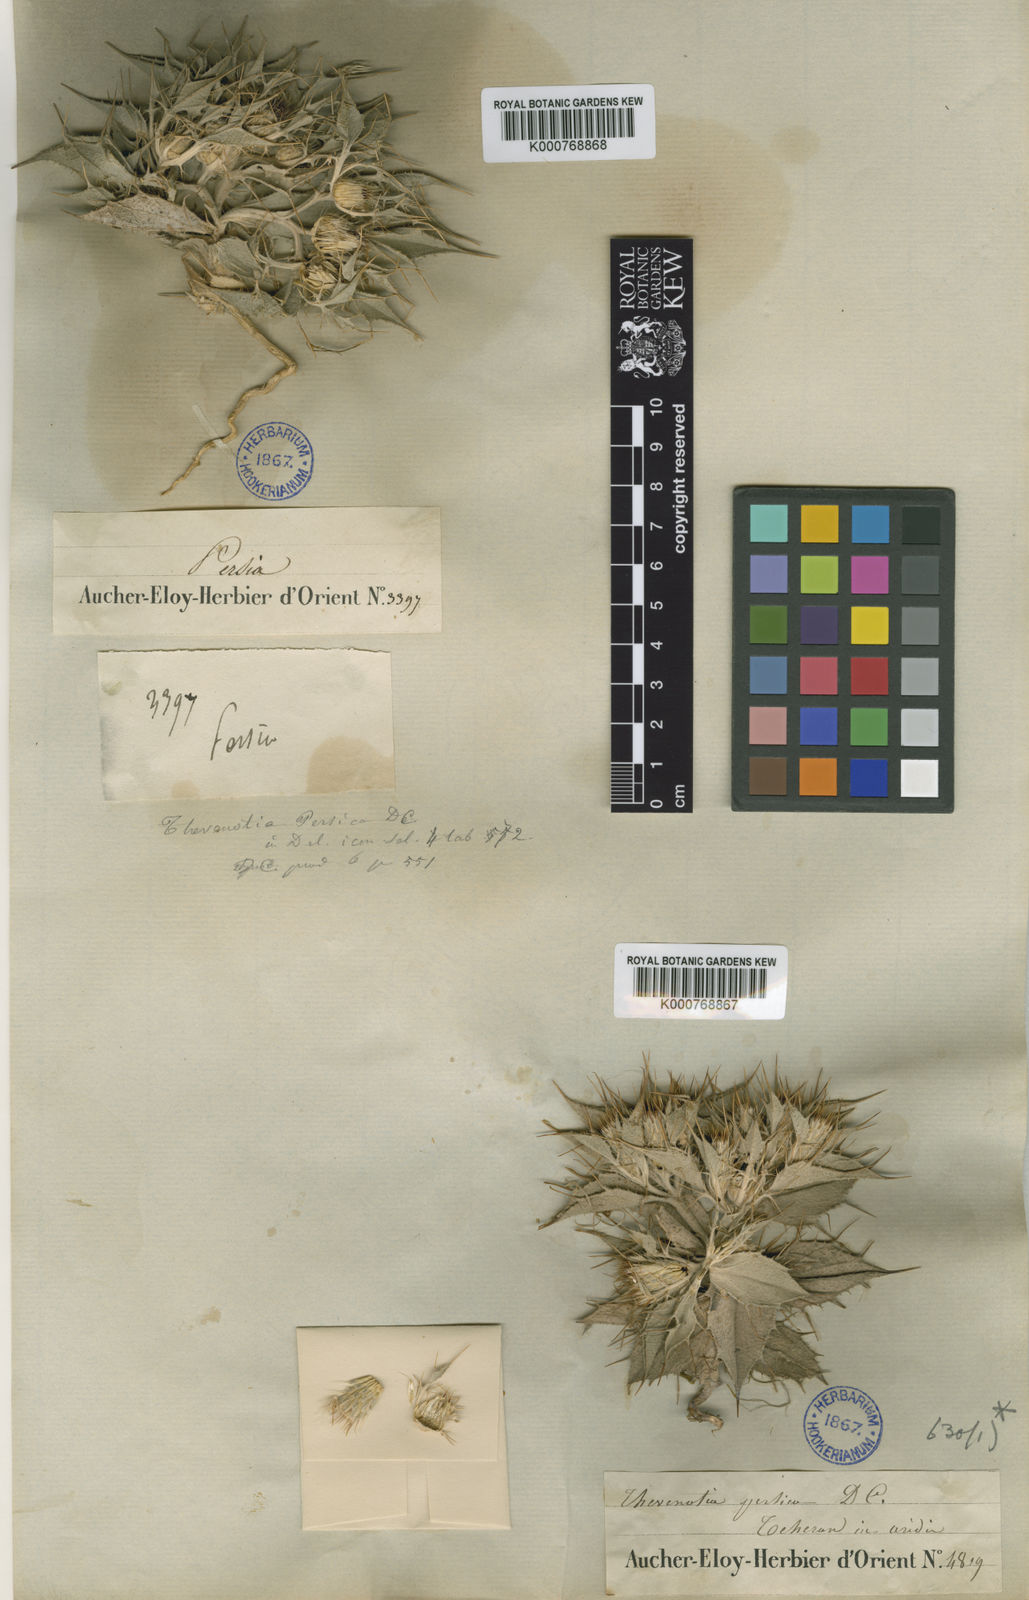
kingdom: Plantae
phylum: Tracheophyta
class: Magnoliopsida
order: Asterales
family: Asteraceae
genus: Thevenotia
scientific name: Thevenotia persica
